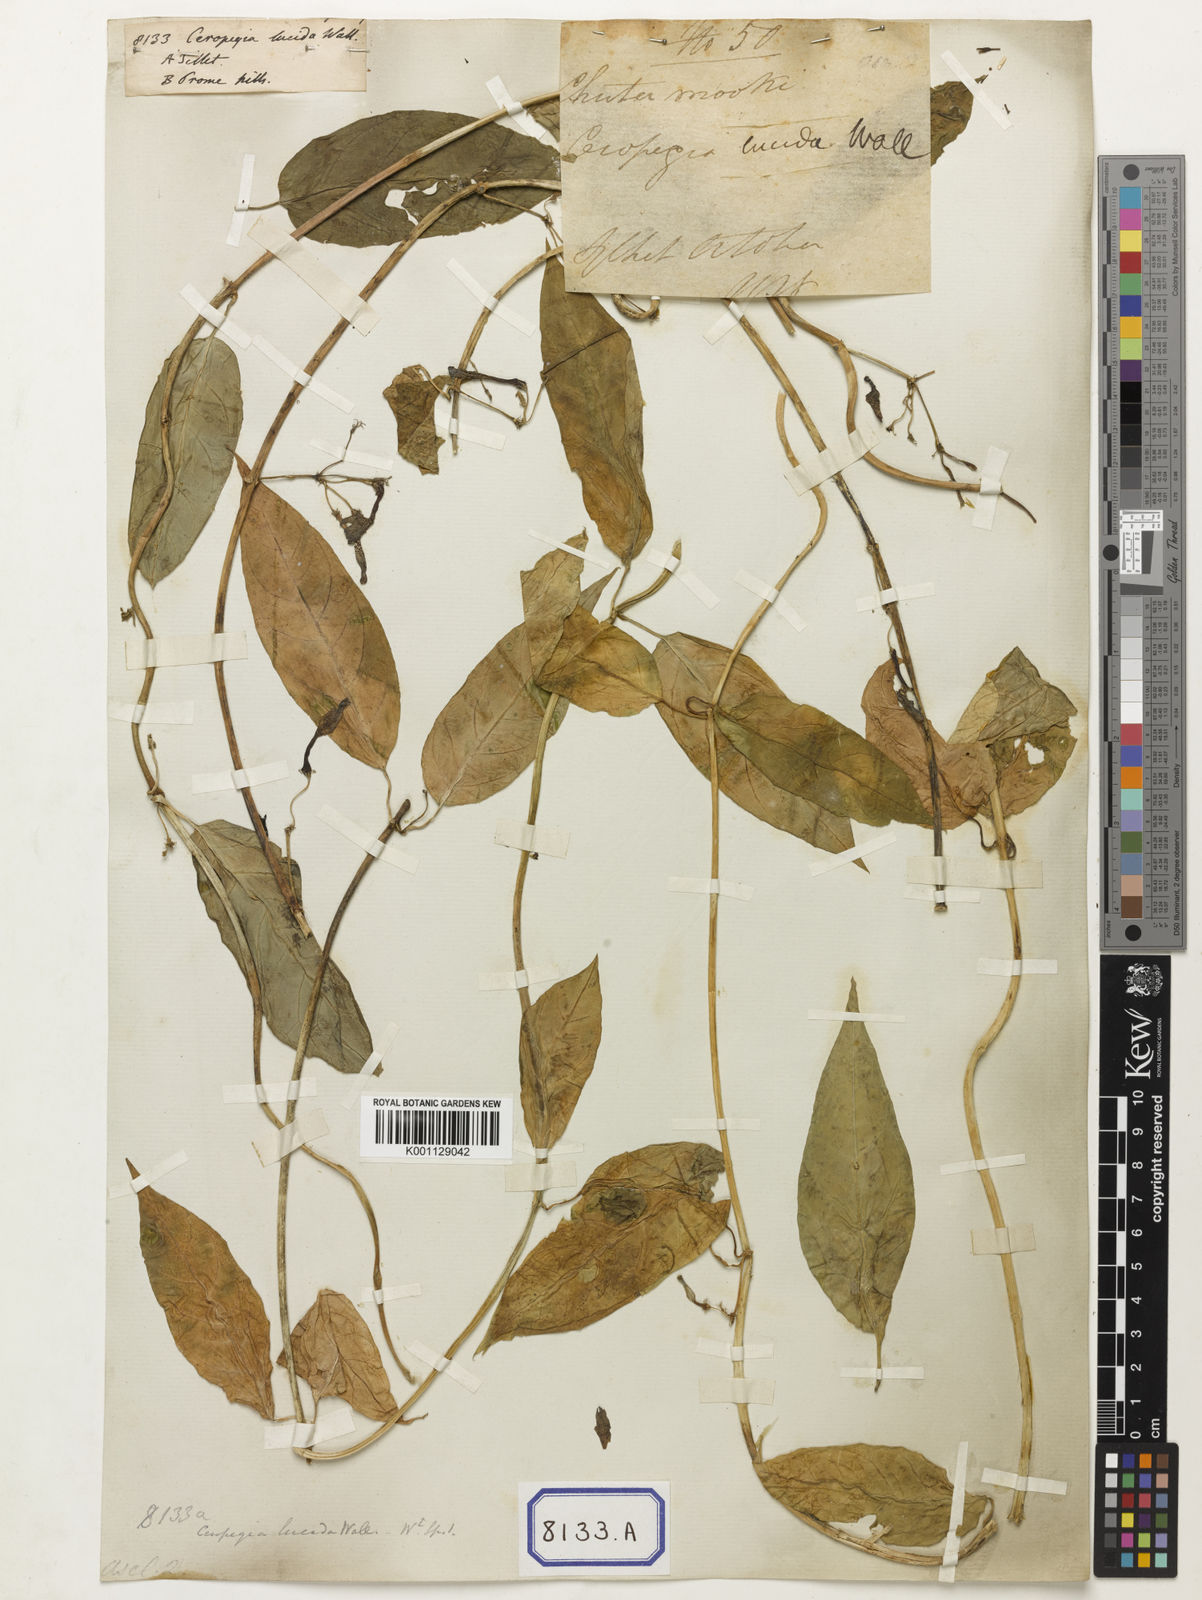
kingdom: Plantae
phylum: Tracheophyta
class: Magnoliopsida
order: Gentianales
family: Apocynaceae
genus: Ceropegia
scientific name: Ceropegia lucida
